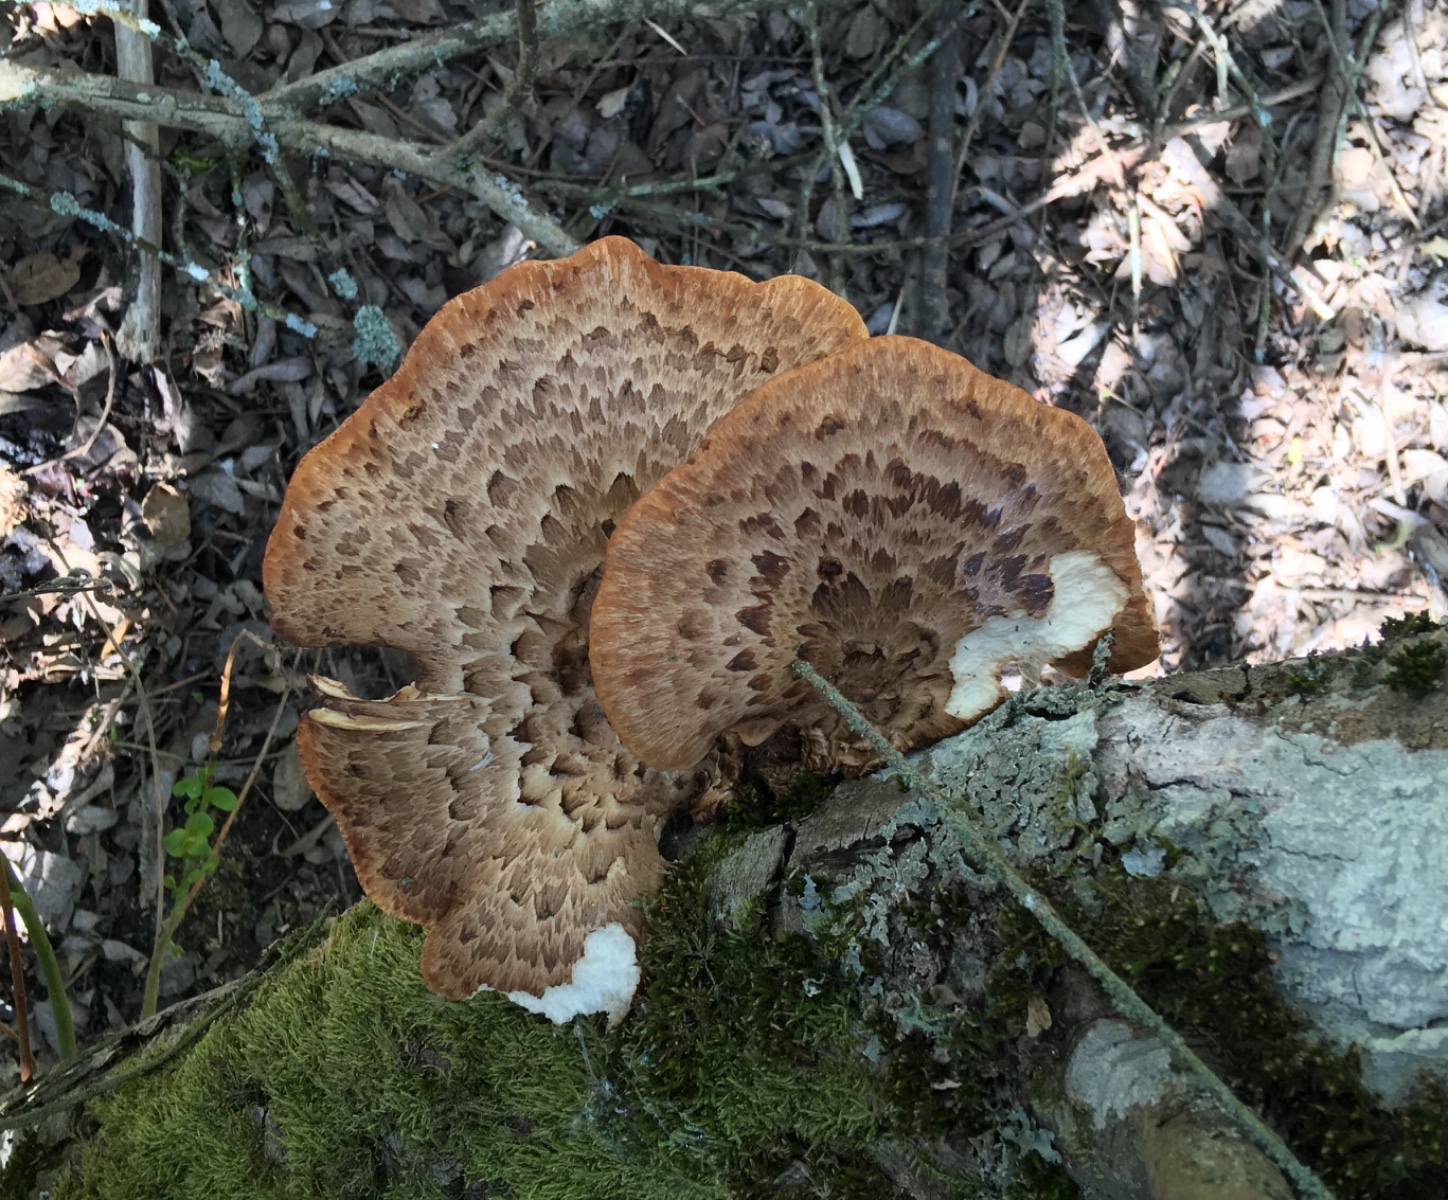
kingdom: Fungi
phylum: Basidiomycota
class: Agaricomycetes
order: Polyporales
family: Polyporaceae
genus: Cerioporus
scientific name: Cerioporus squamosus
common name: skællet stilkporesvamp
